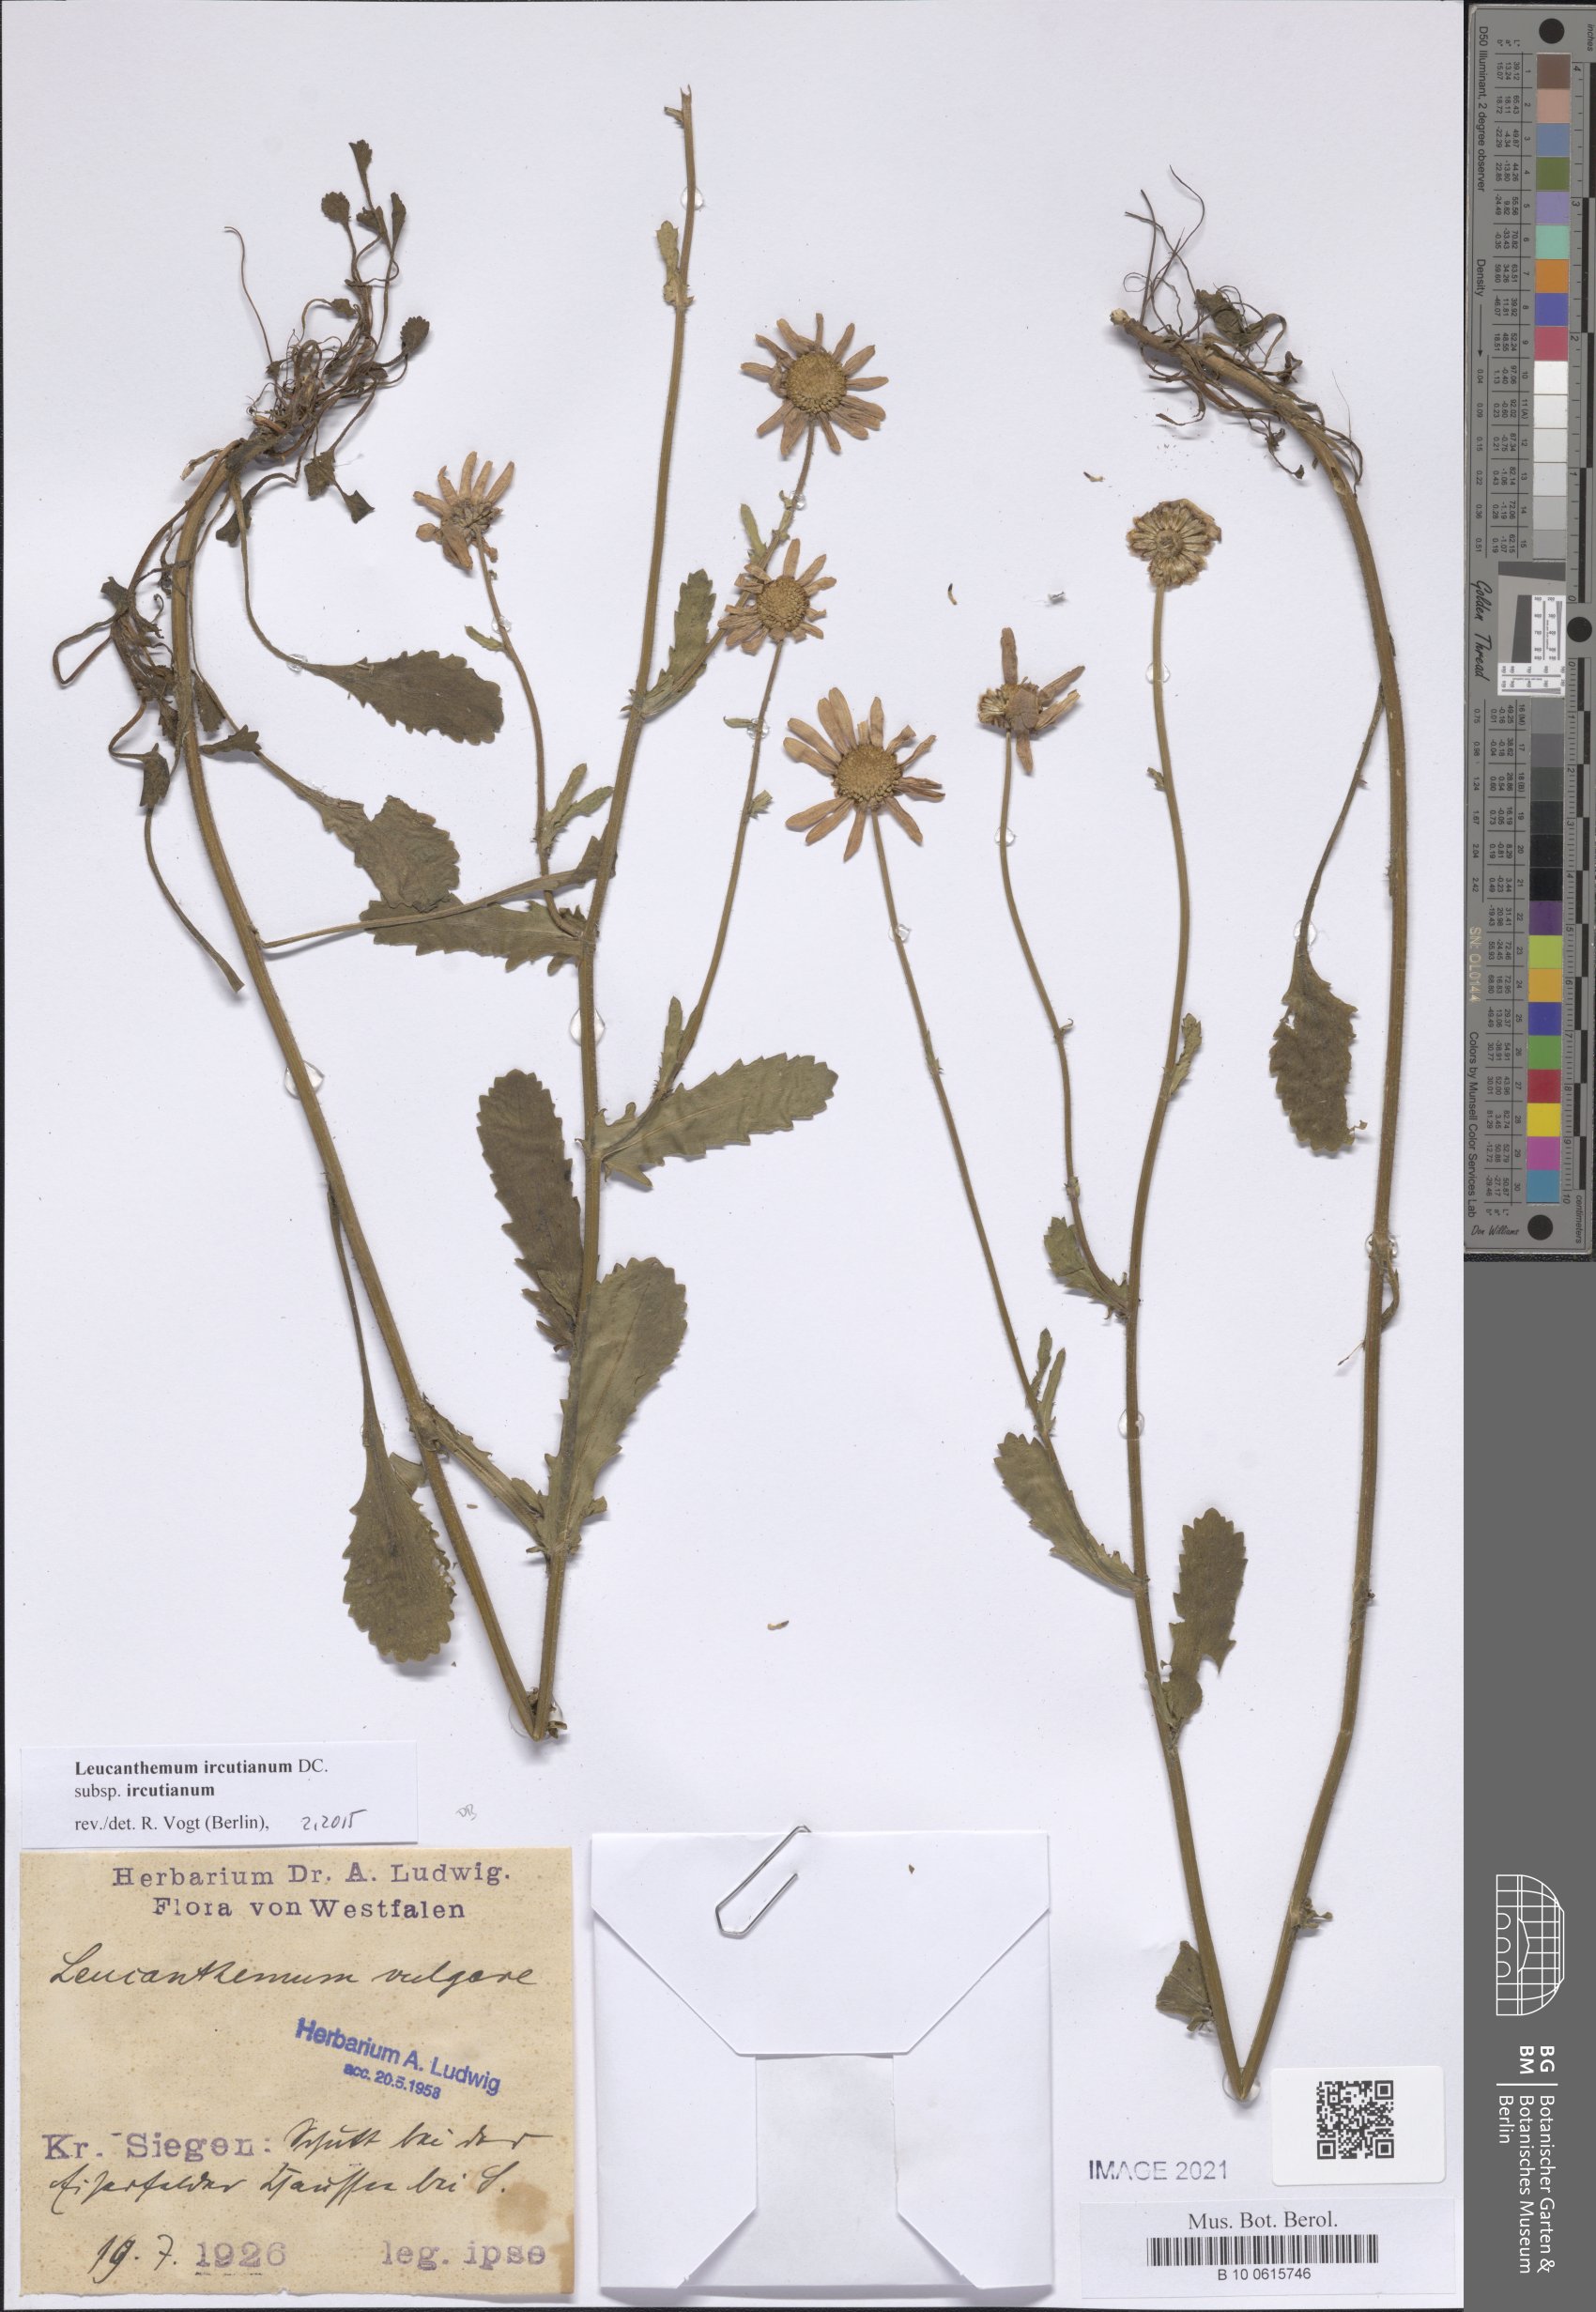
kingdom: Plantae
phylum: Tracheophyta
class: Magnoliopsida
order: Asterales
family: Asteraceae
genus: Leucanthemum
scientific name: Leucanthemum ircutianum
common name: Daisy
